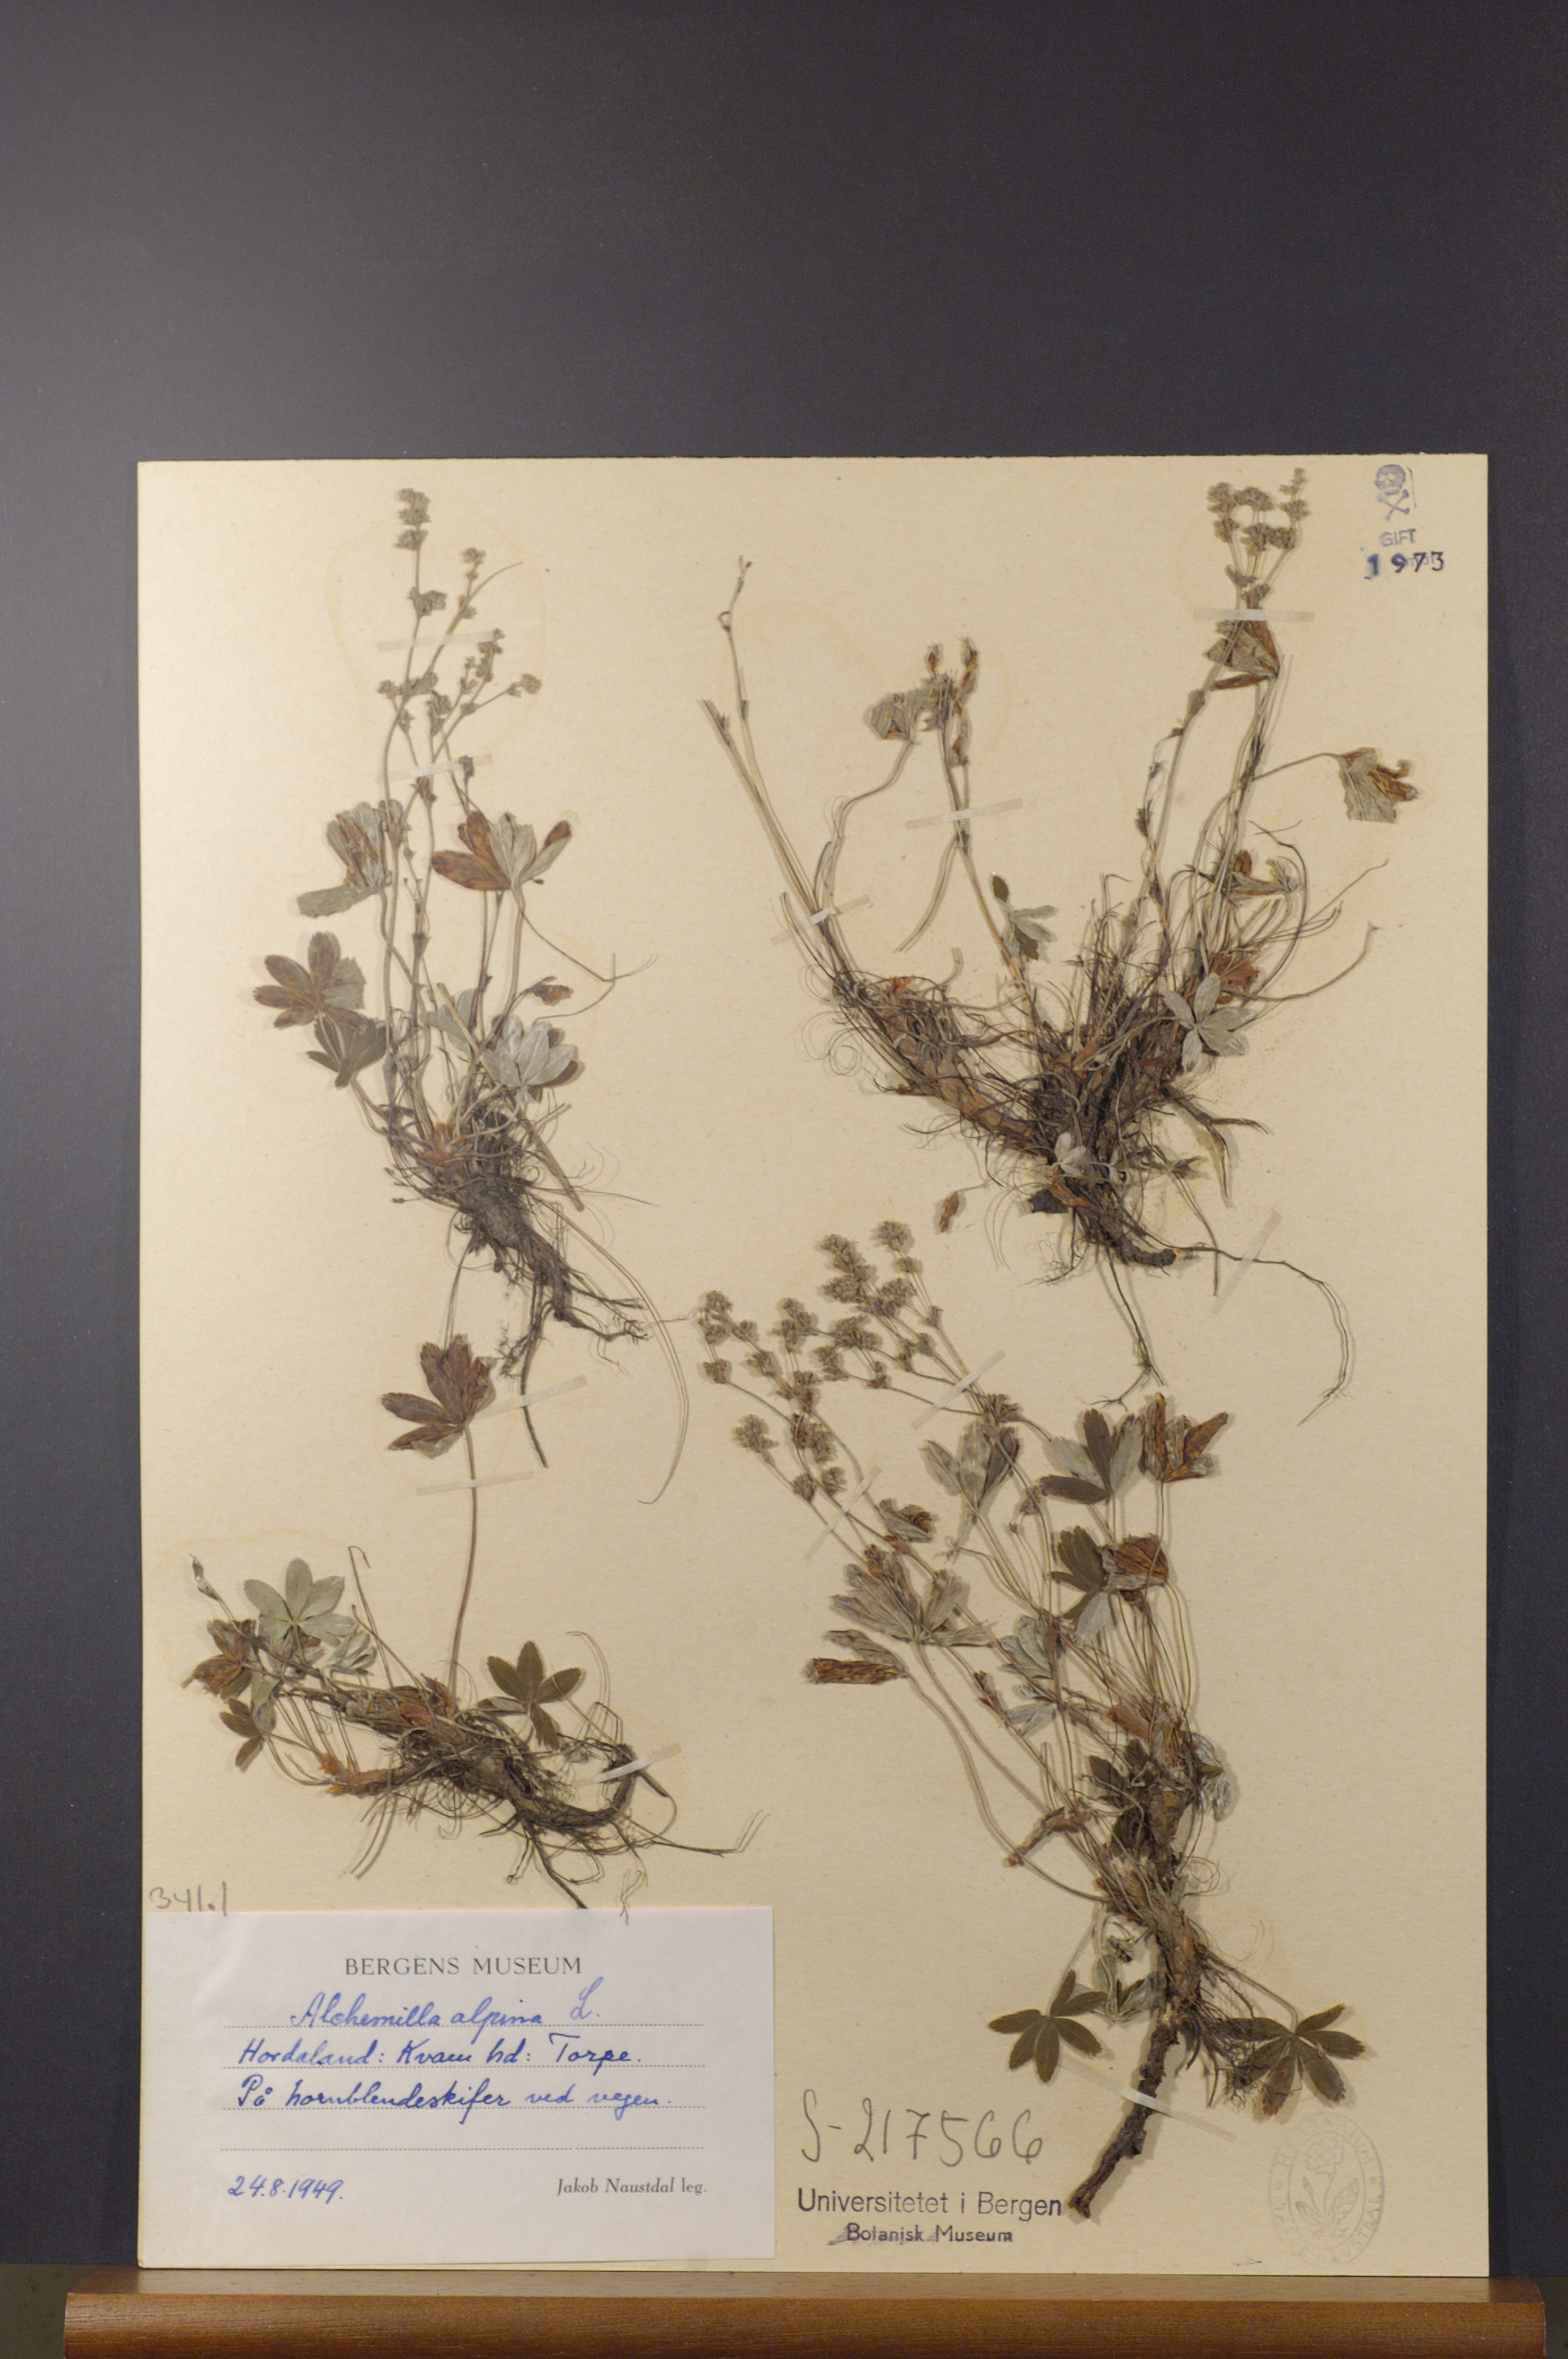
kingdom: Plantae
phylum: Tracheophyta
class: Magnoliopsida
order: Rosales
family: Rosaceae
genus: Alchemilla
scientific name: Alchemilla alpina
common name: Alpine lady's-mantle
